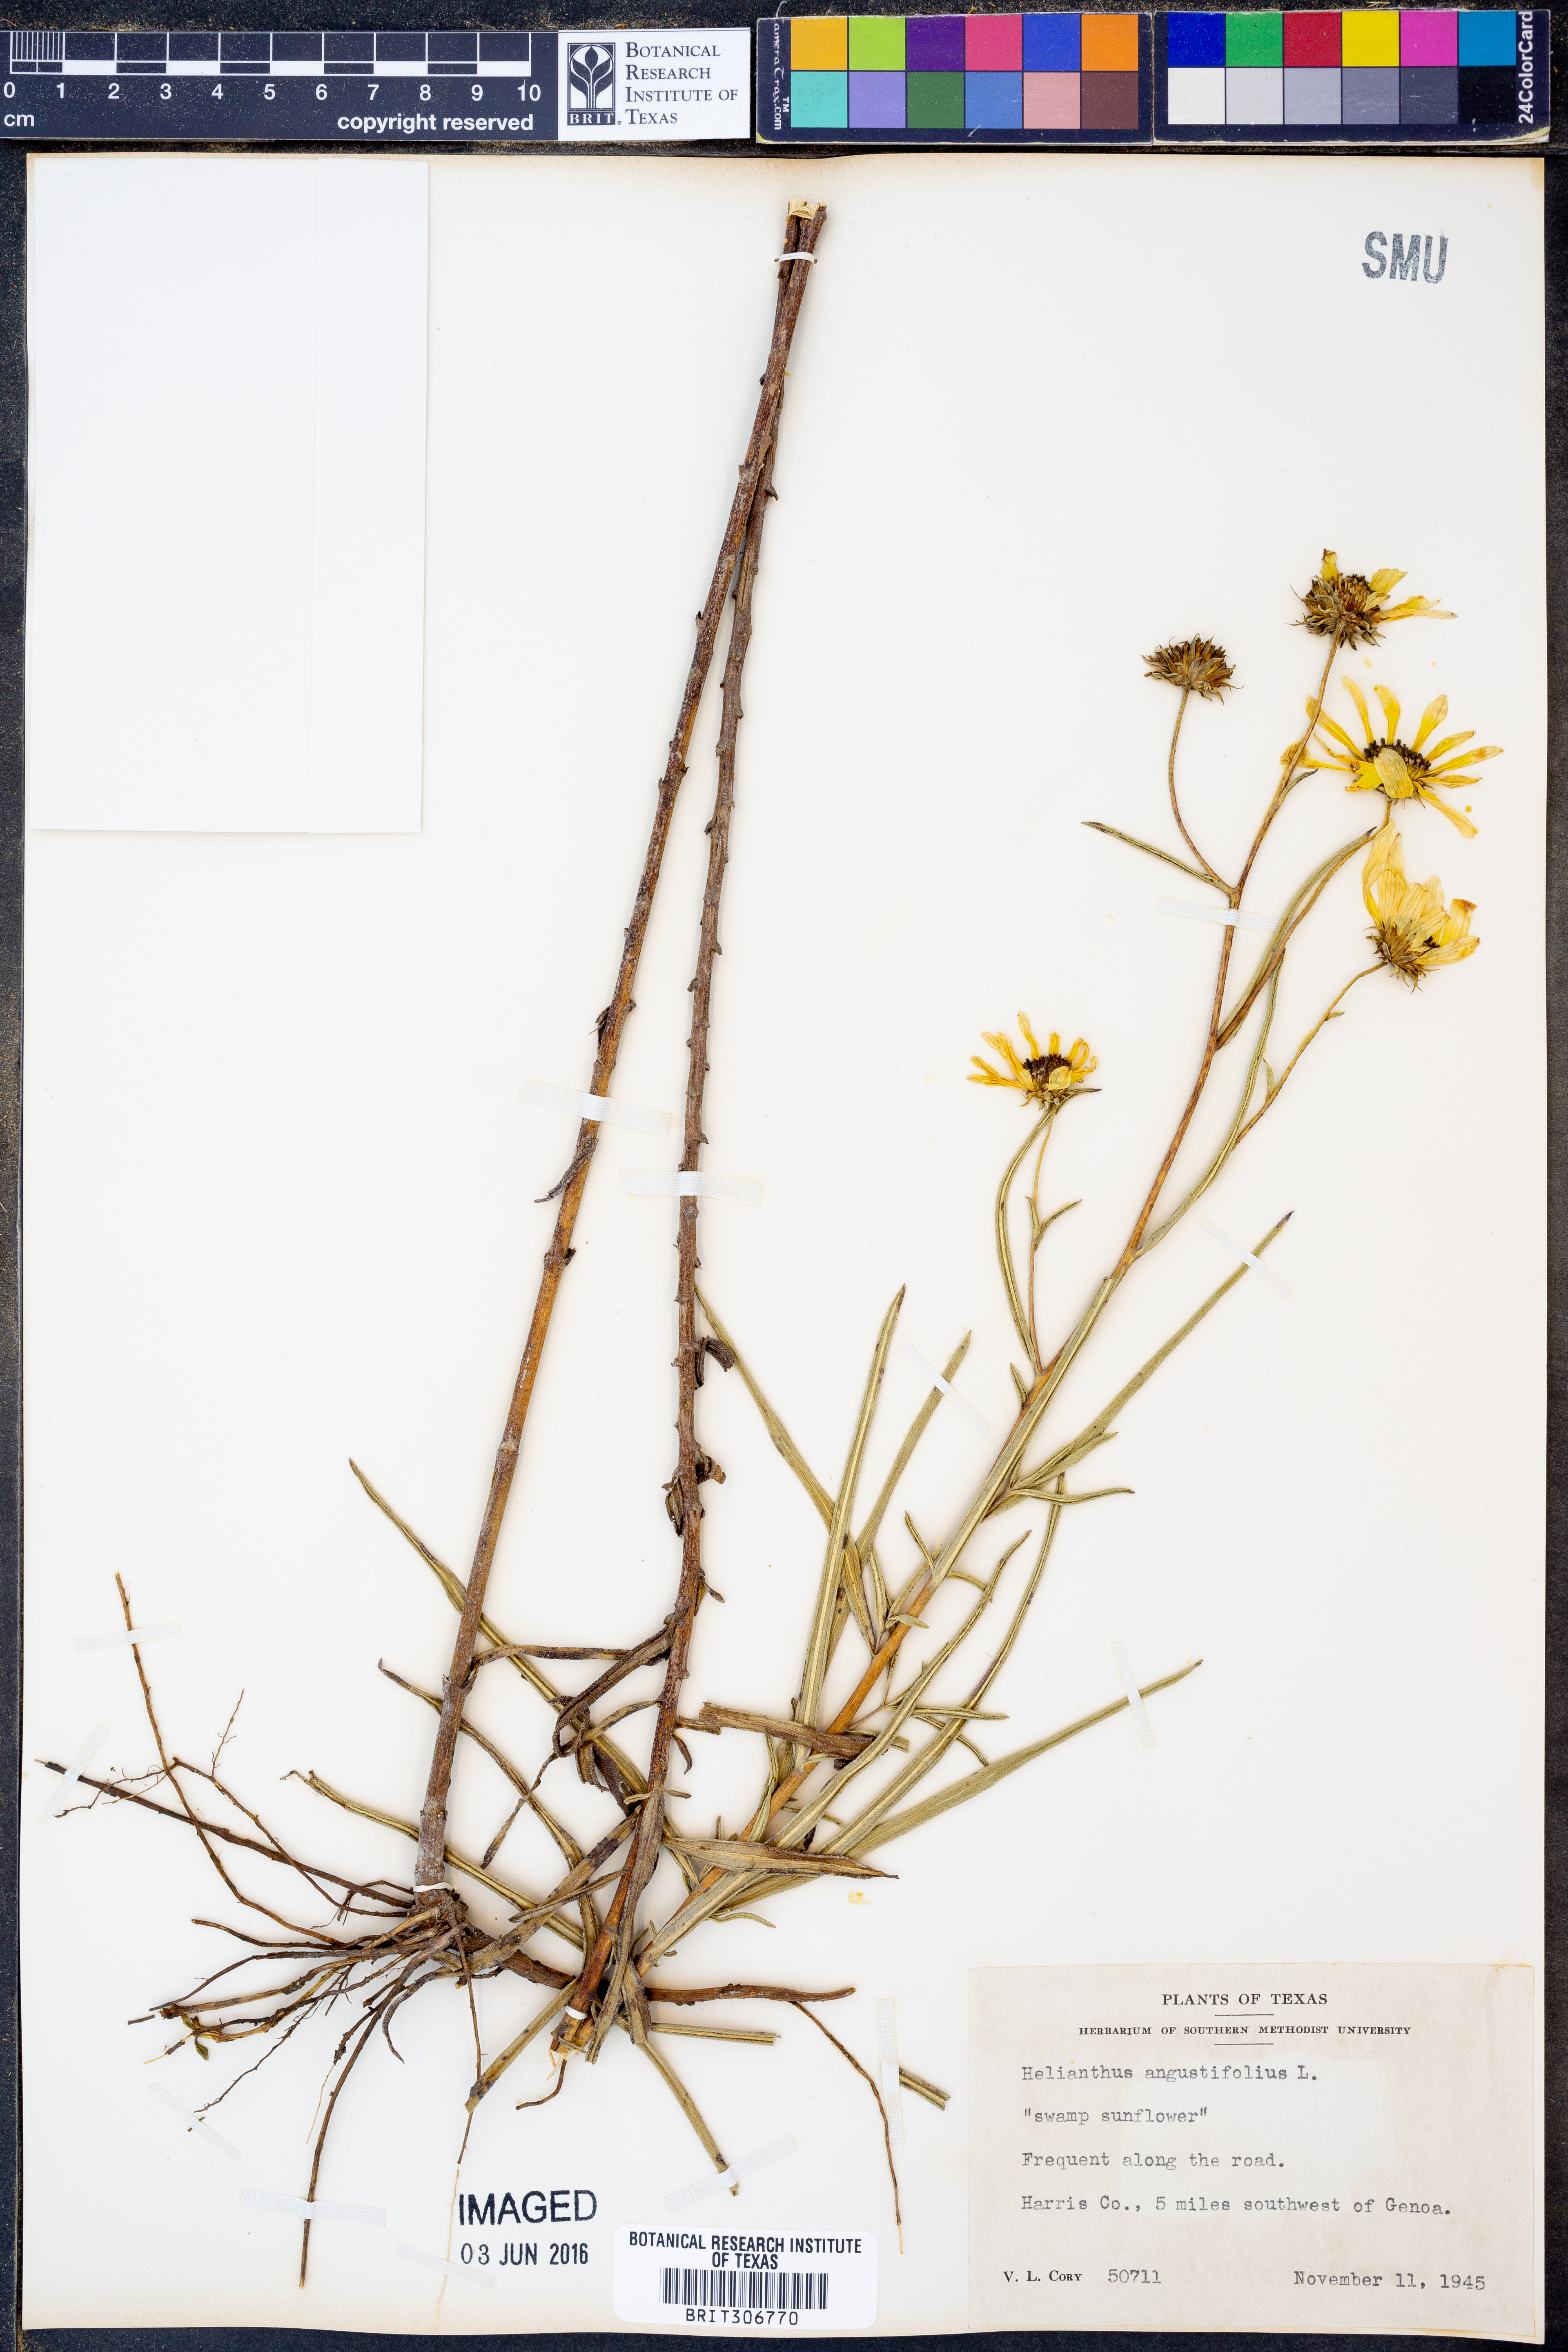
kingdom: Plantae
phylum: Tracheophyta
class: Magnoliopsida
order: Asterales
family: Asteraceae
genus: Helianthus
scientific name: Helianthus angustifolius
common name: Swamp sunflower
